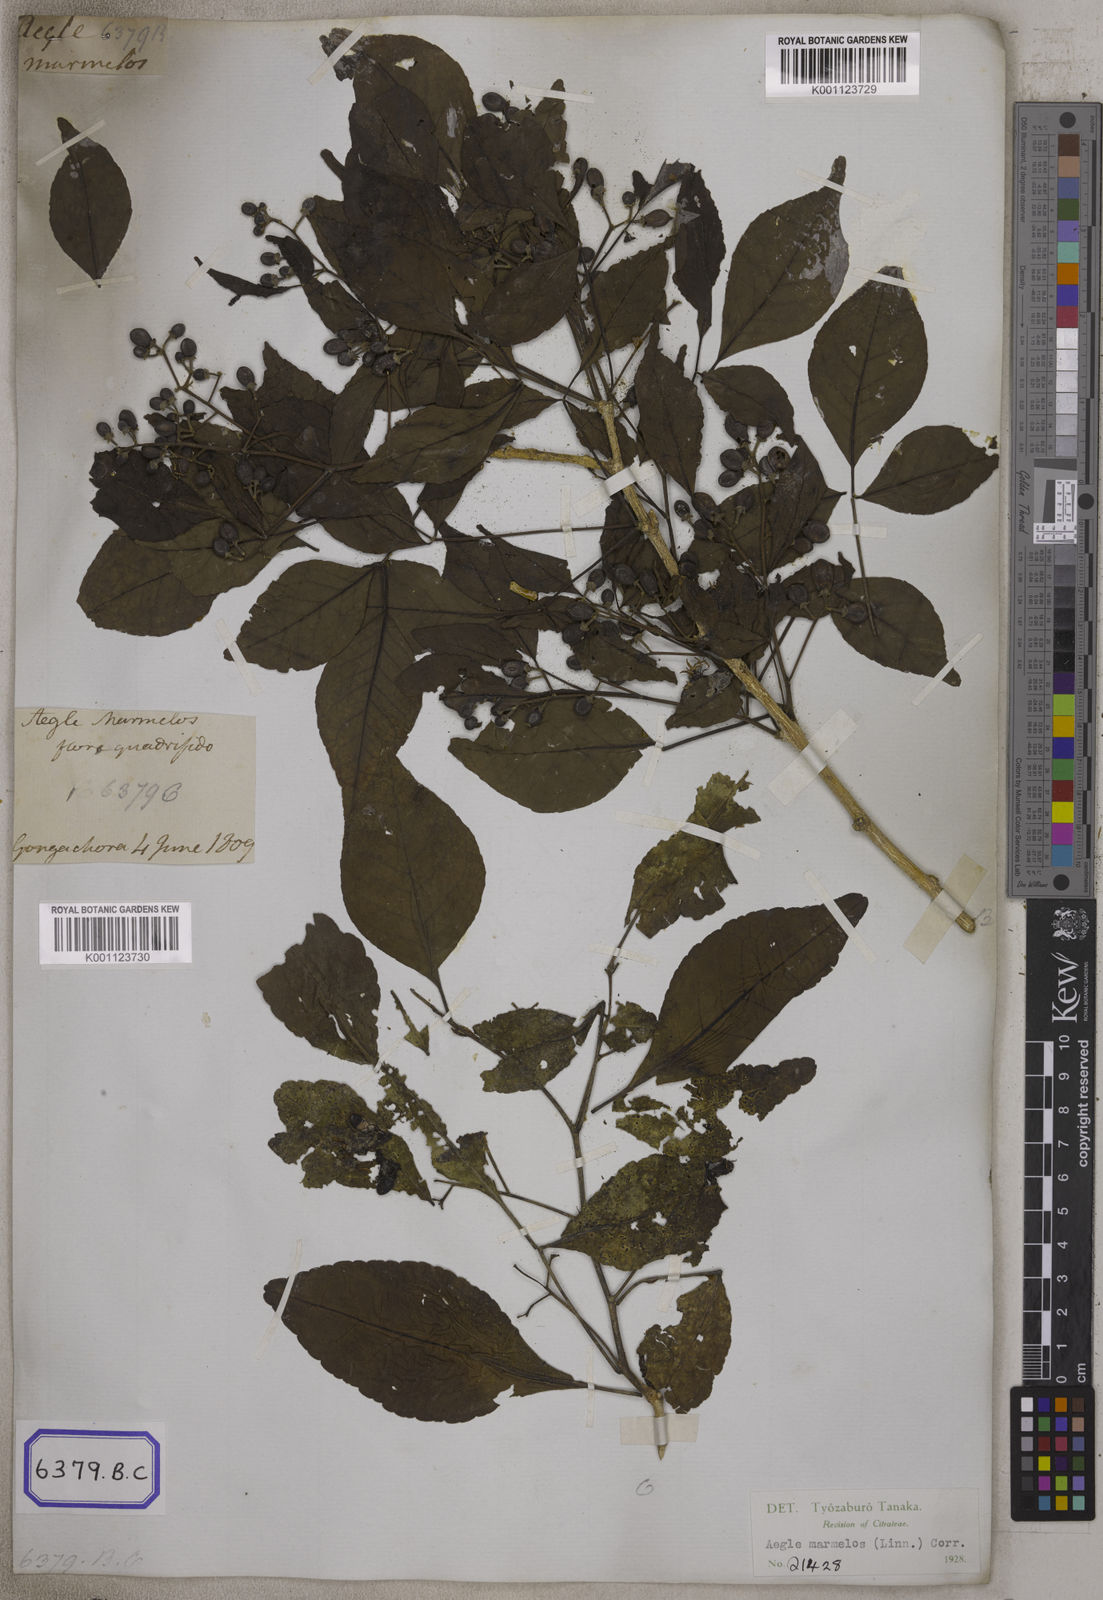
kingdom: Plantae
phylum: Tracheophyta
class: Magnoliopsida
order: Sapindales
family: Rutaceae
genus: Aegle
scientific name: Aegle marmelos
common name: Bael
